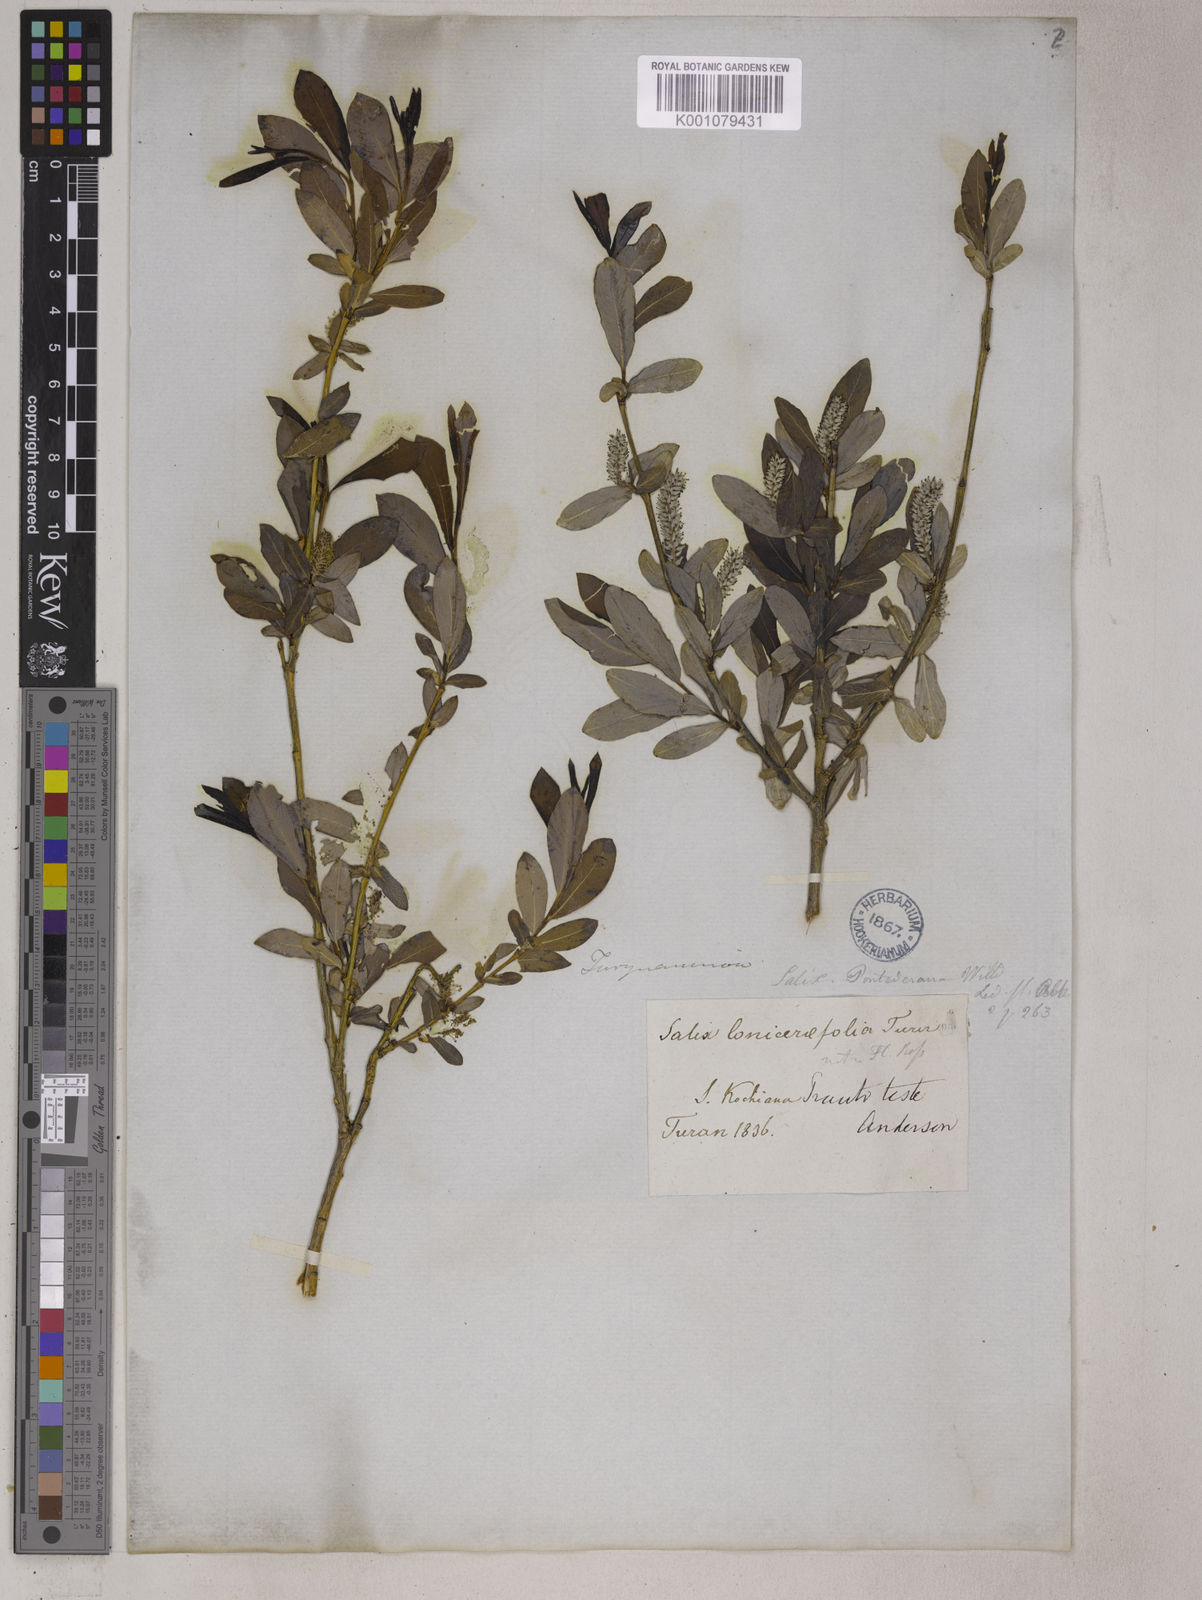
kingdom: Plantae
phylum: Tracheophyta
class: Magnoliopsida
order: Malpighiales
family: Salicaceae
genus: Salix
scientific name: Salix alaxensis
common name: Feltleaf willow
